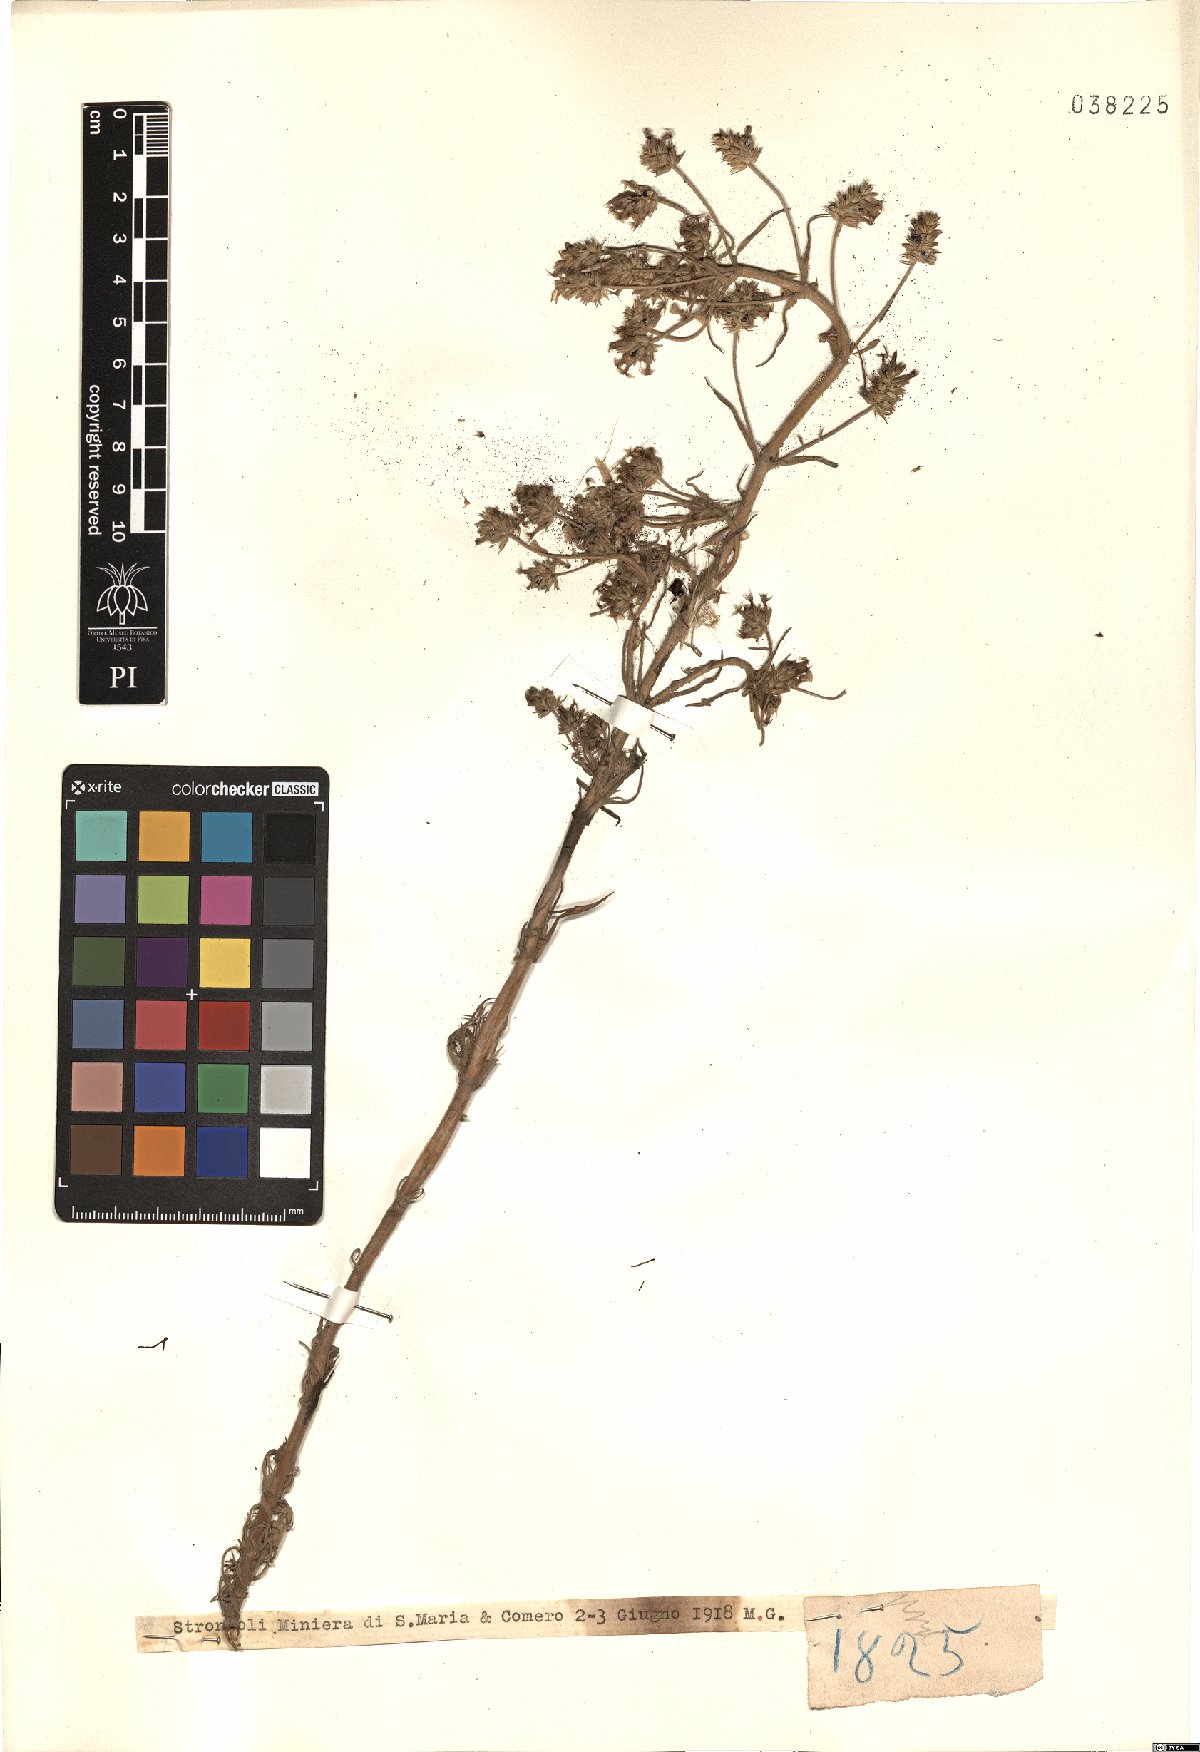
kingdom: Plantae
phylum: Tracheophyta
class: Magnoliopsida
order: Lamiales
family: Plantaginaceae
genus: Plantago
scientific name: Plantago
